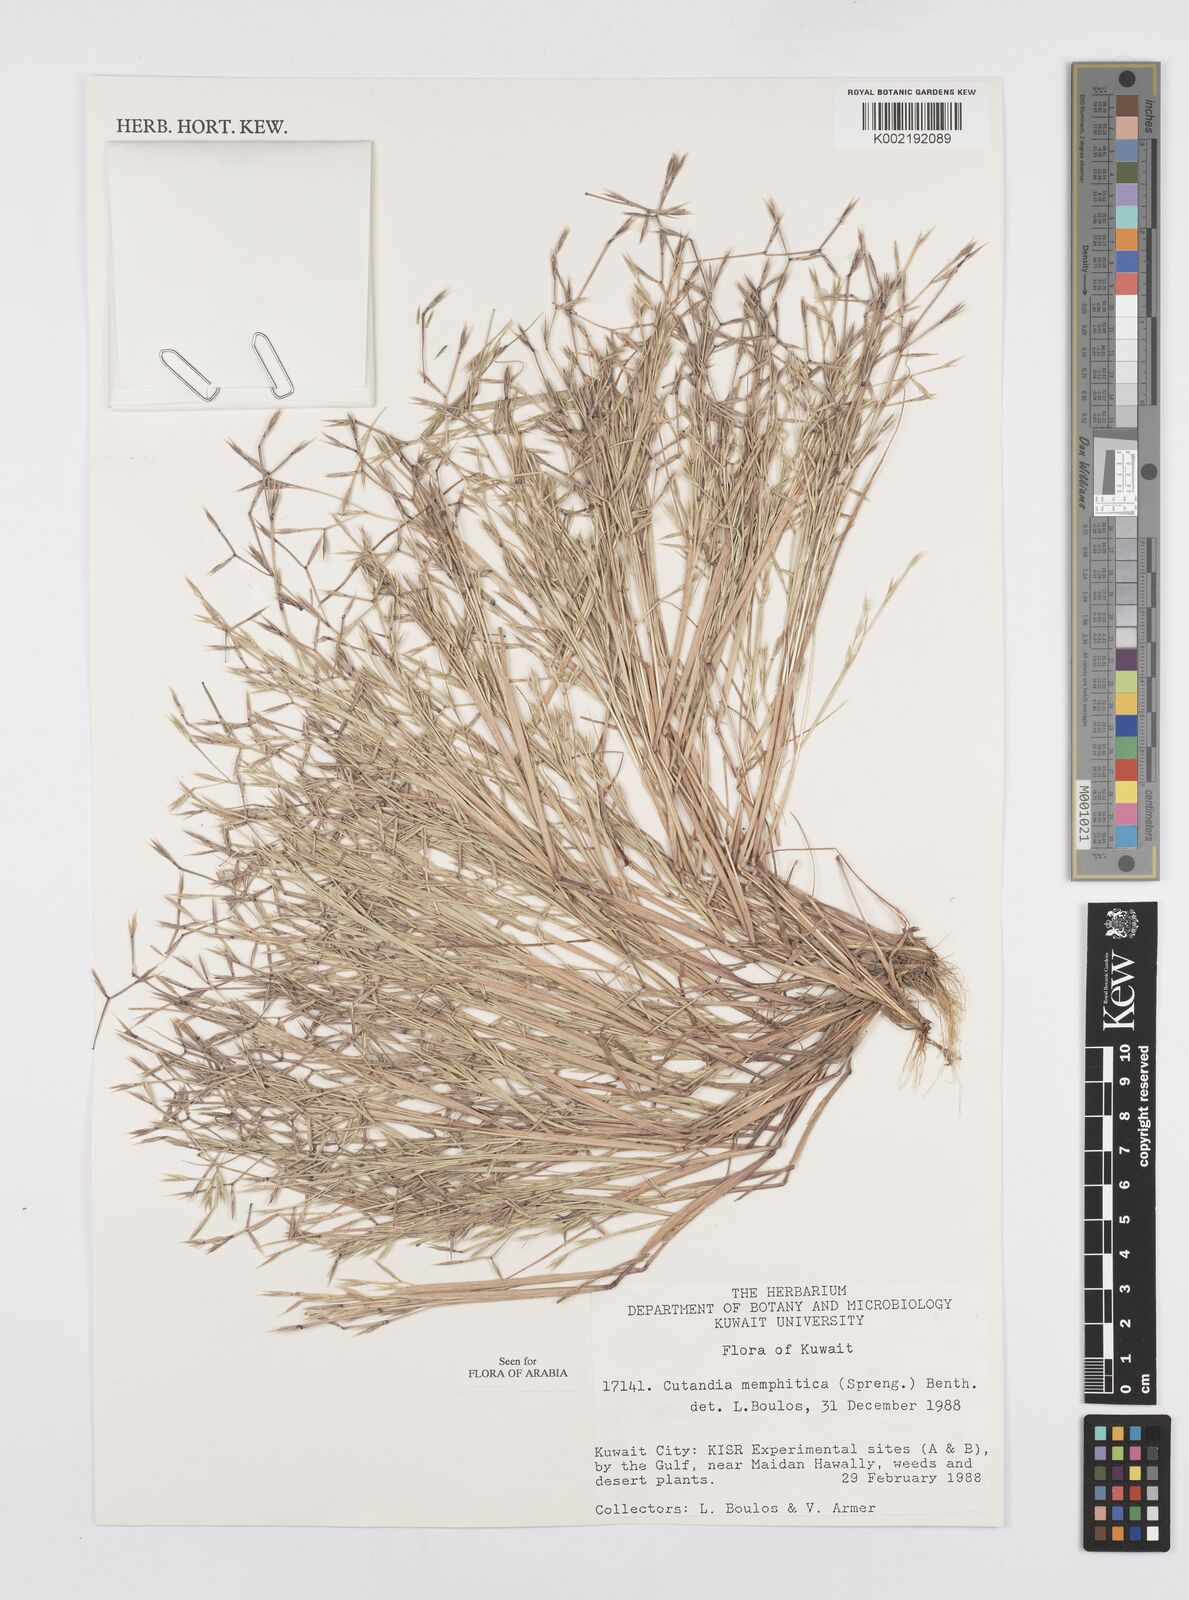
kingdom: Plantae
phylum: Tracheophyta
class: Liliopsida
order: Poales
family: Poaceae
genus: Cutandia
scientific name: Cutandia memphitica
